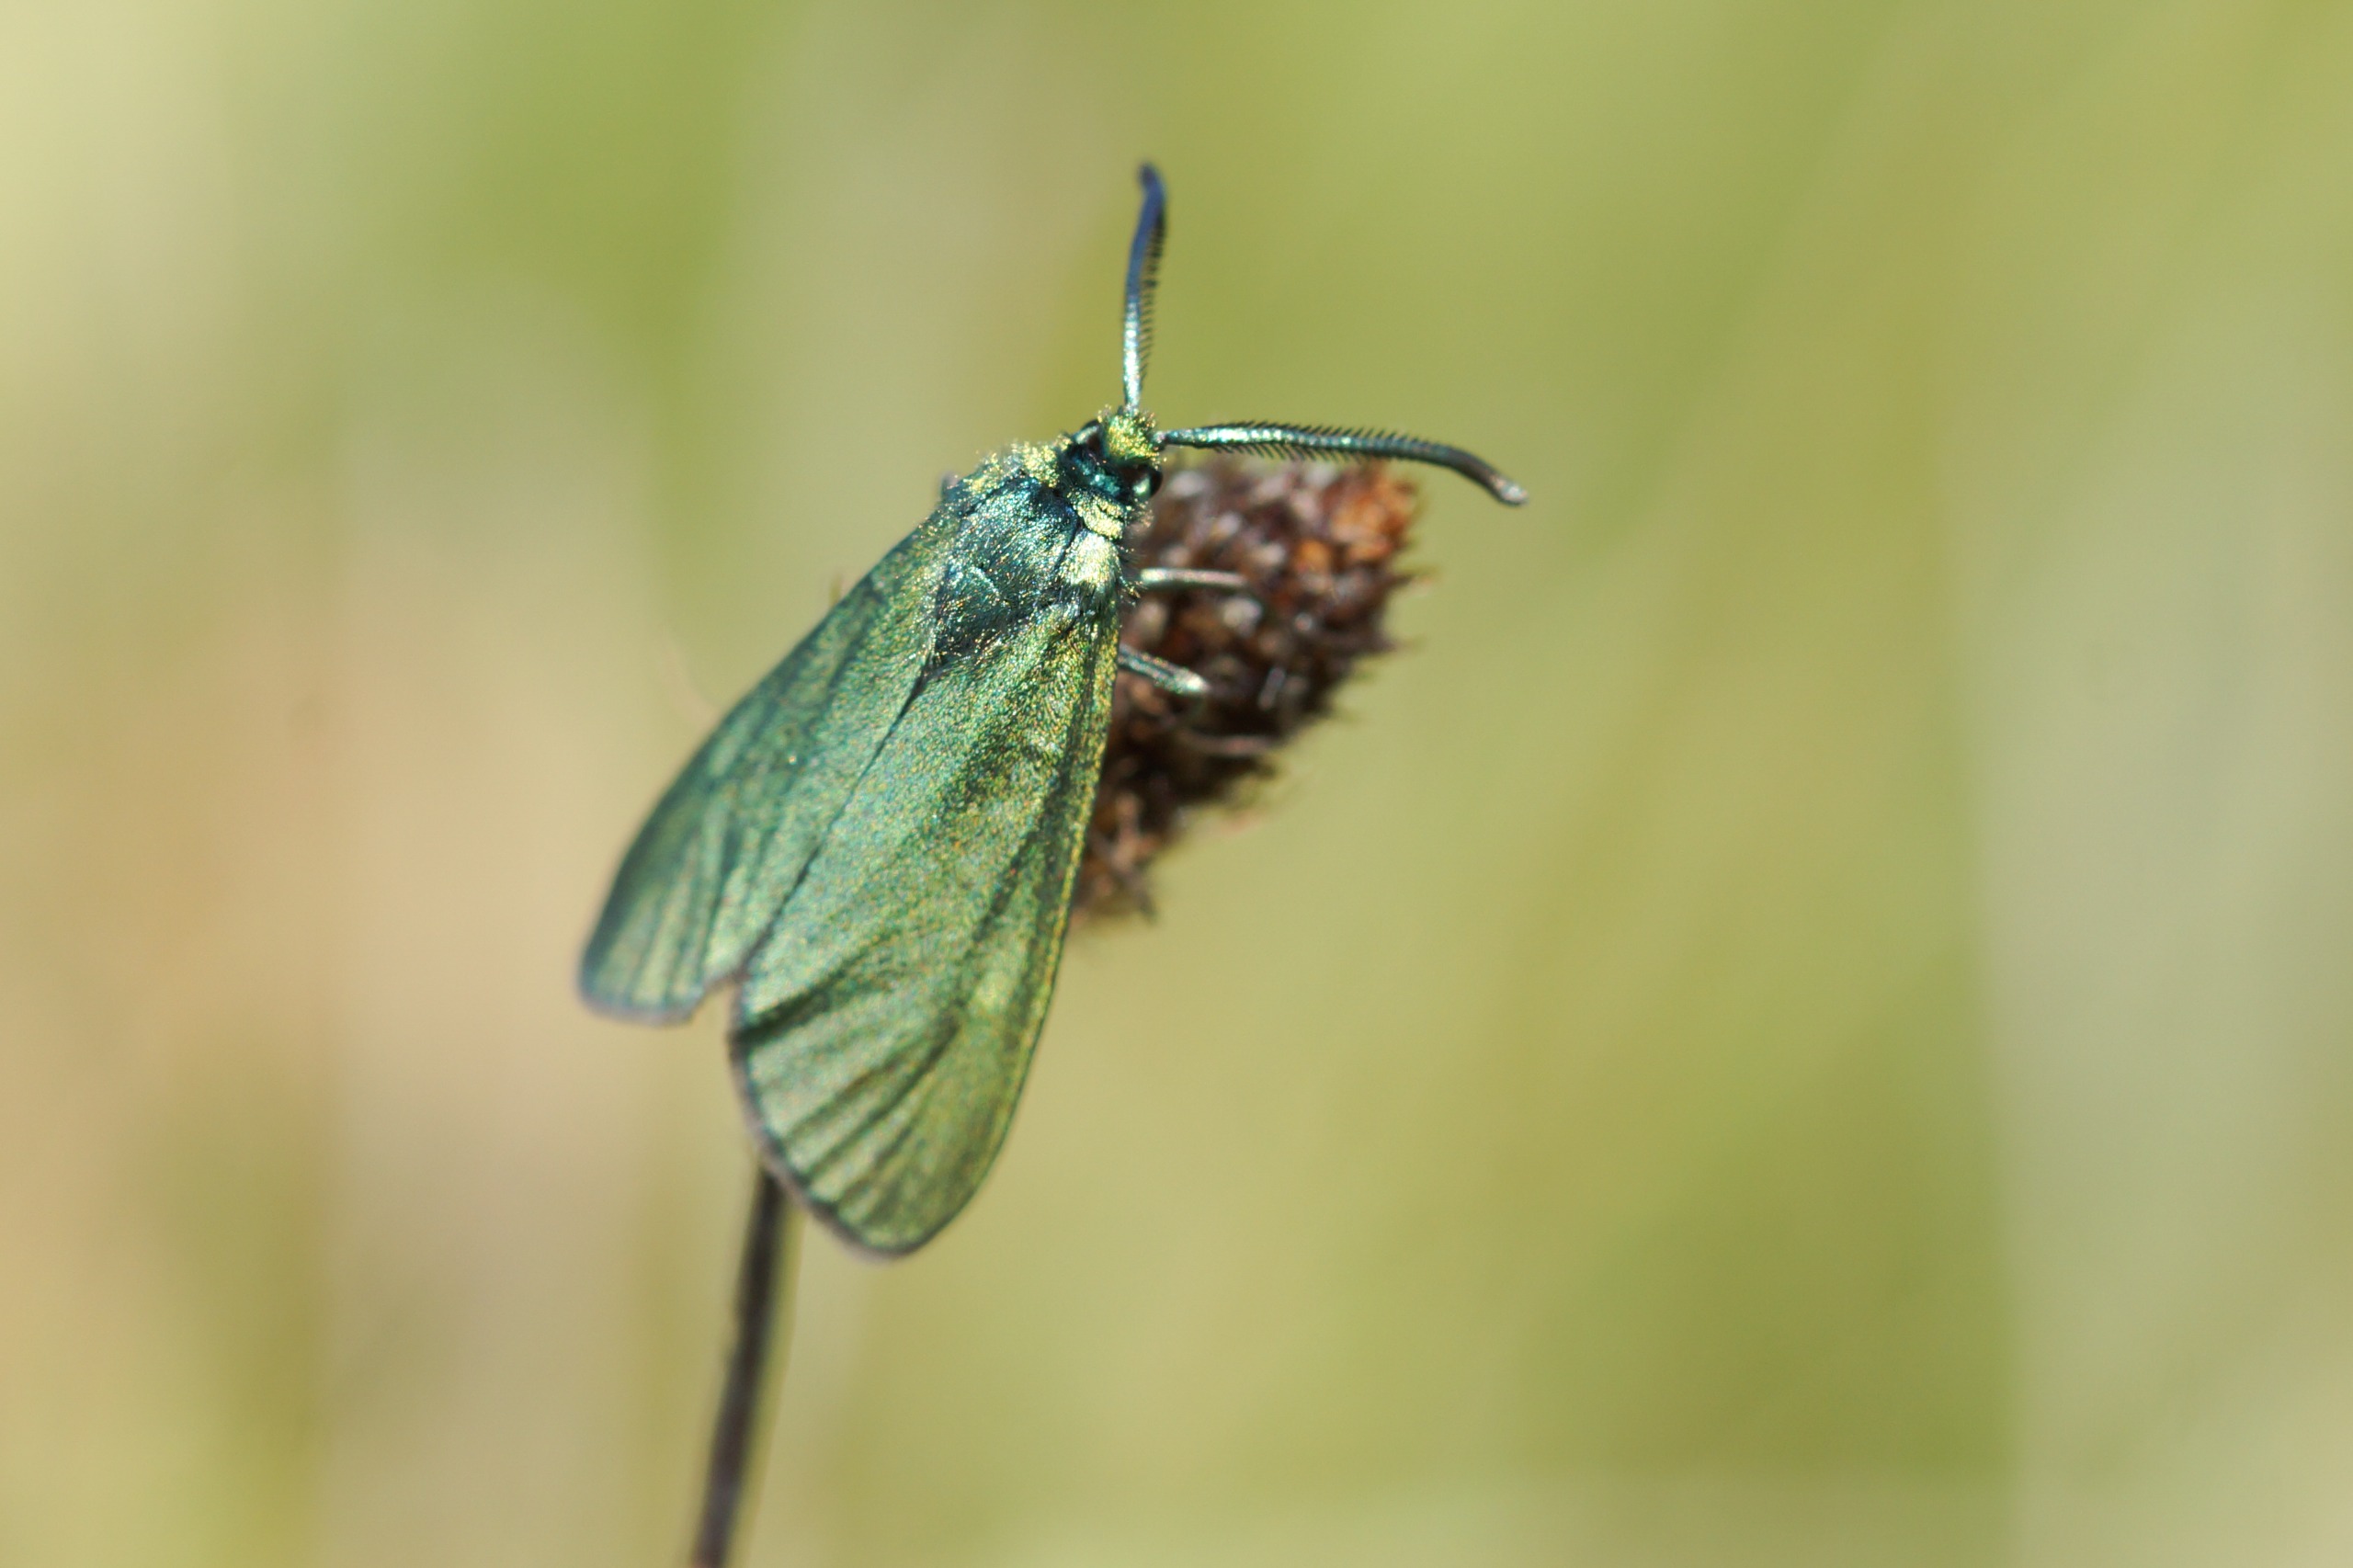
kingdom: Animalia
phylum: Arthropoda
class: Insecta
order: Lepidoptera
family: Zygaenidae
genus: Adscita
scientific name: Adscita statices
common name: Metalvinge
